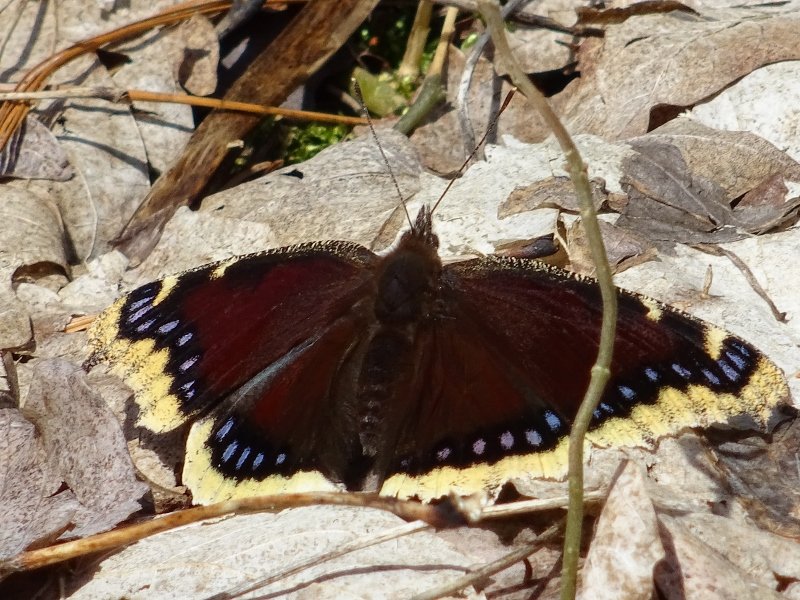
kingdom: Animalia
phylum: Arthropoda
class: Insecta
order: Lepidoptera
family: Nymphalidae
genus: Nymphalis
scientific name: Nymphalis antiopa
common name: Mourning Cloak
